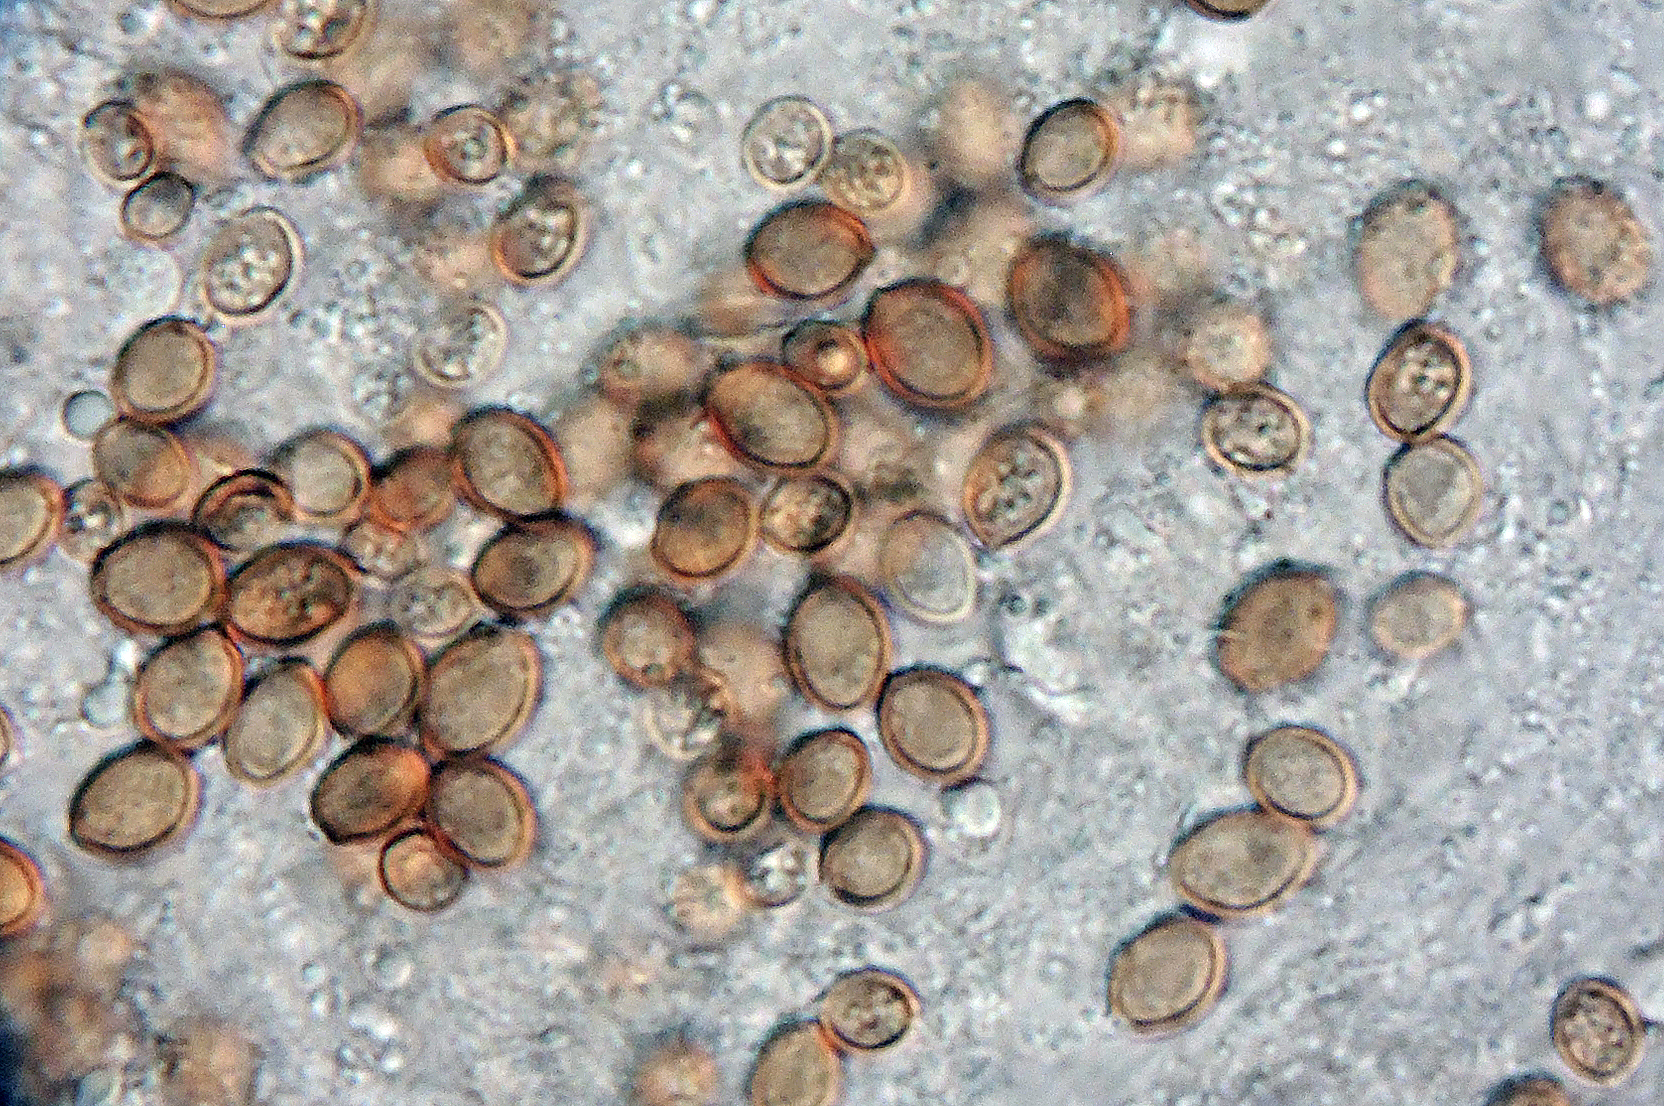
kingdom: Fungi
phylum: Basidiomycota
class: Agaricomycetes
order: Agaricales
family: Psathyrellaceae
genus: Coprinopsis
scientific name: Coprinopsis urticicola
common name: urte-blækhat
